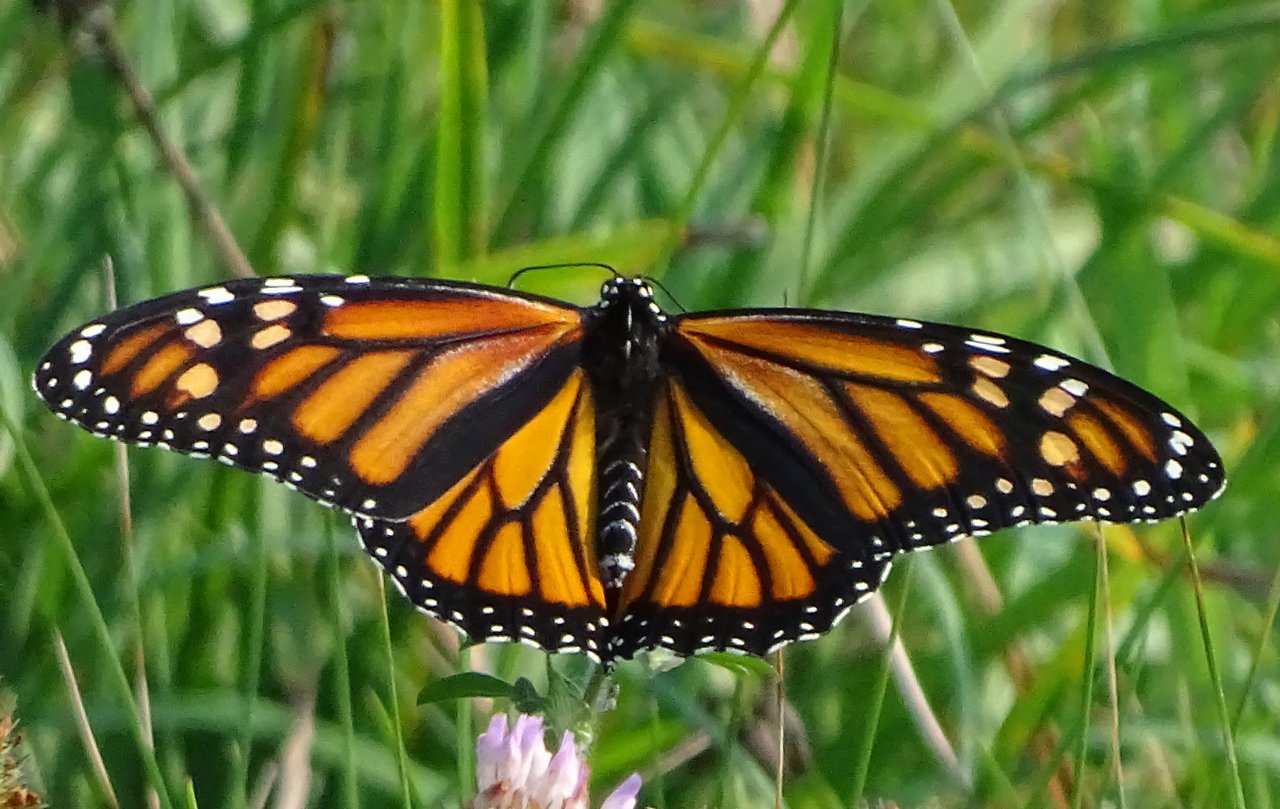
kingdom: Animalia
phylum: Arthropoda
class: Insecta
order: Lepidoptera
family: Nymphalidae
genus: Danaus
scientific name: Danaus plexippus
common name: Monarch
